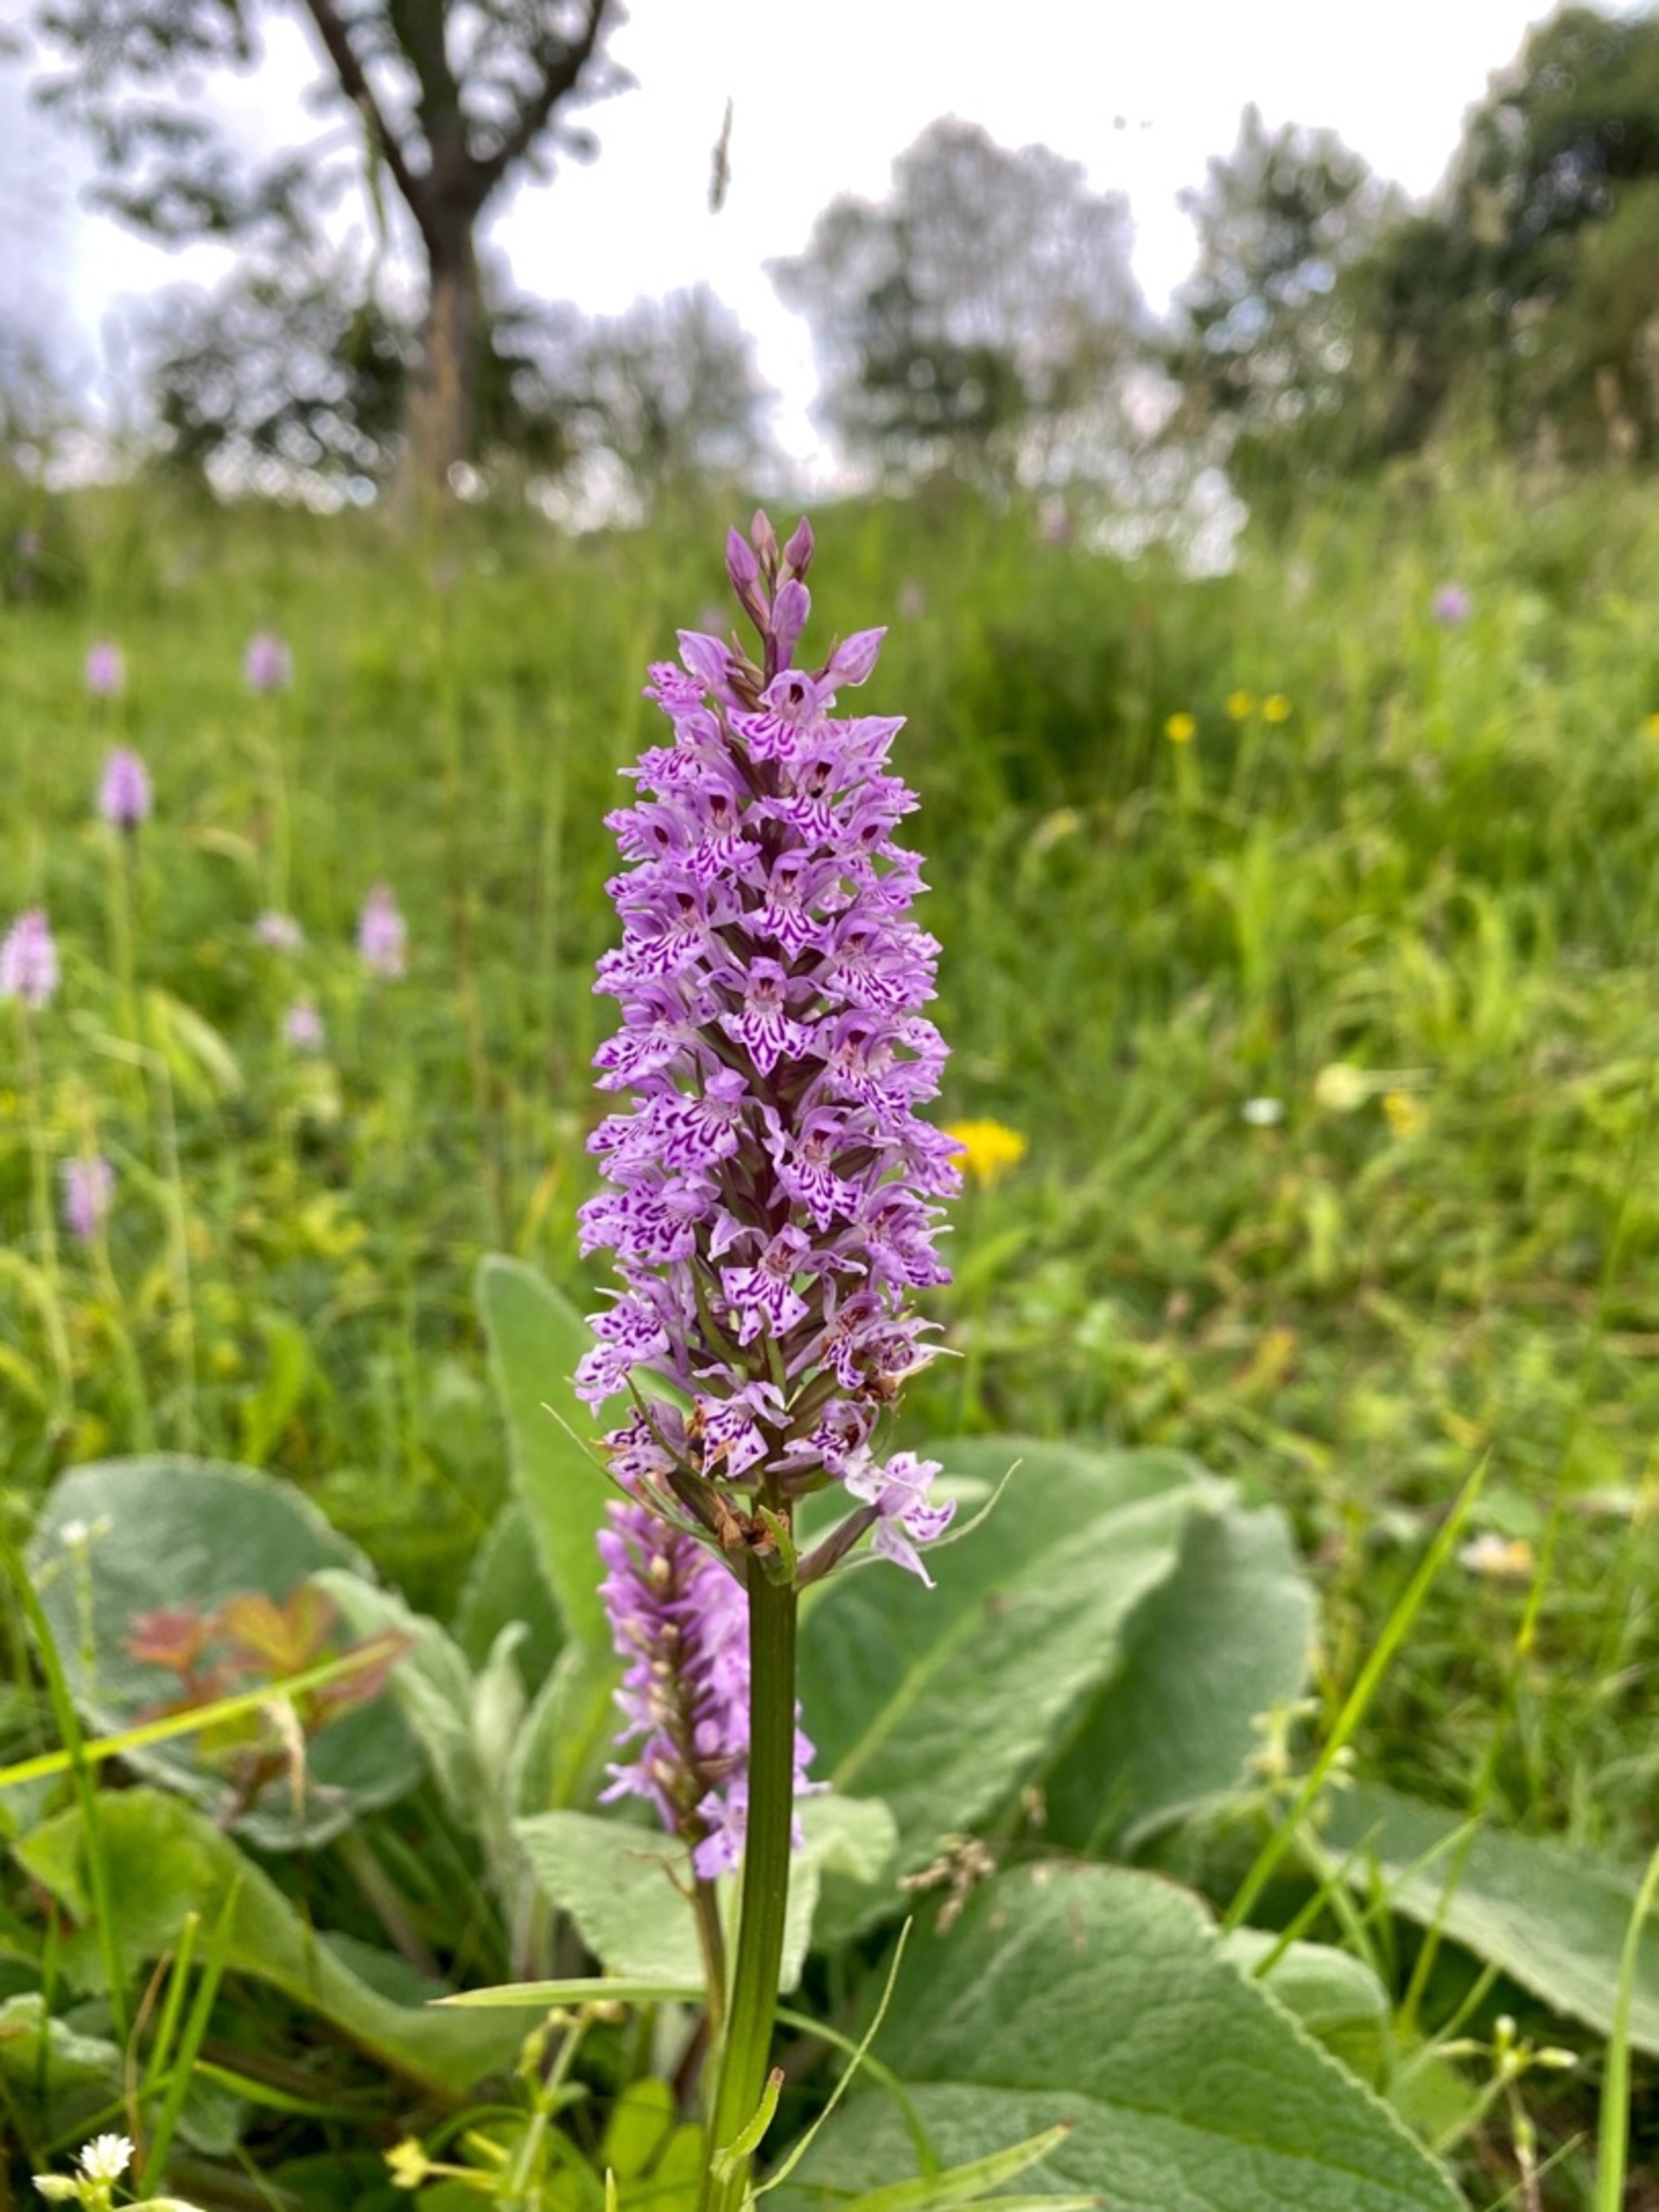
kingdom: Plantae
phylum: Tracheophyta
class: Liliopsida
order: Asparagales
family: Orchidaceae
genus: Dactylorhiza
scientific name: Dactylorhiza maculata
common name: Skov-gøgeurt
